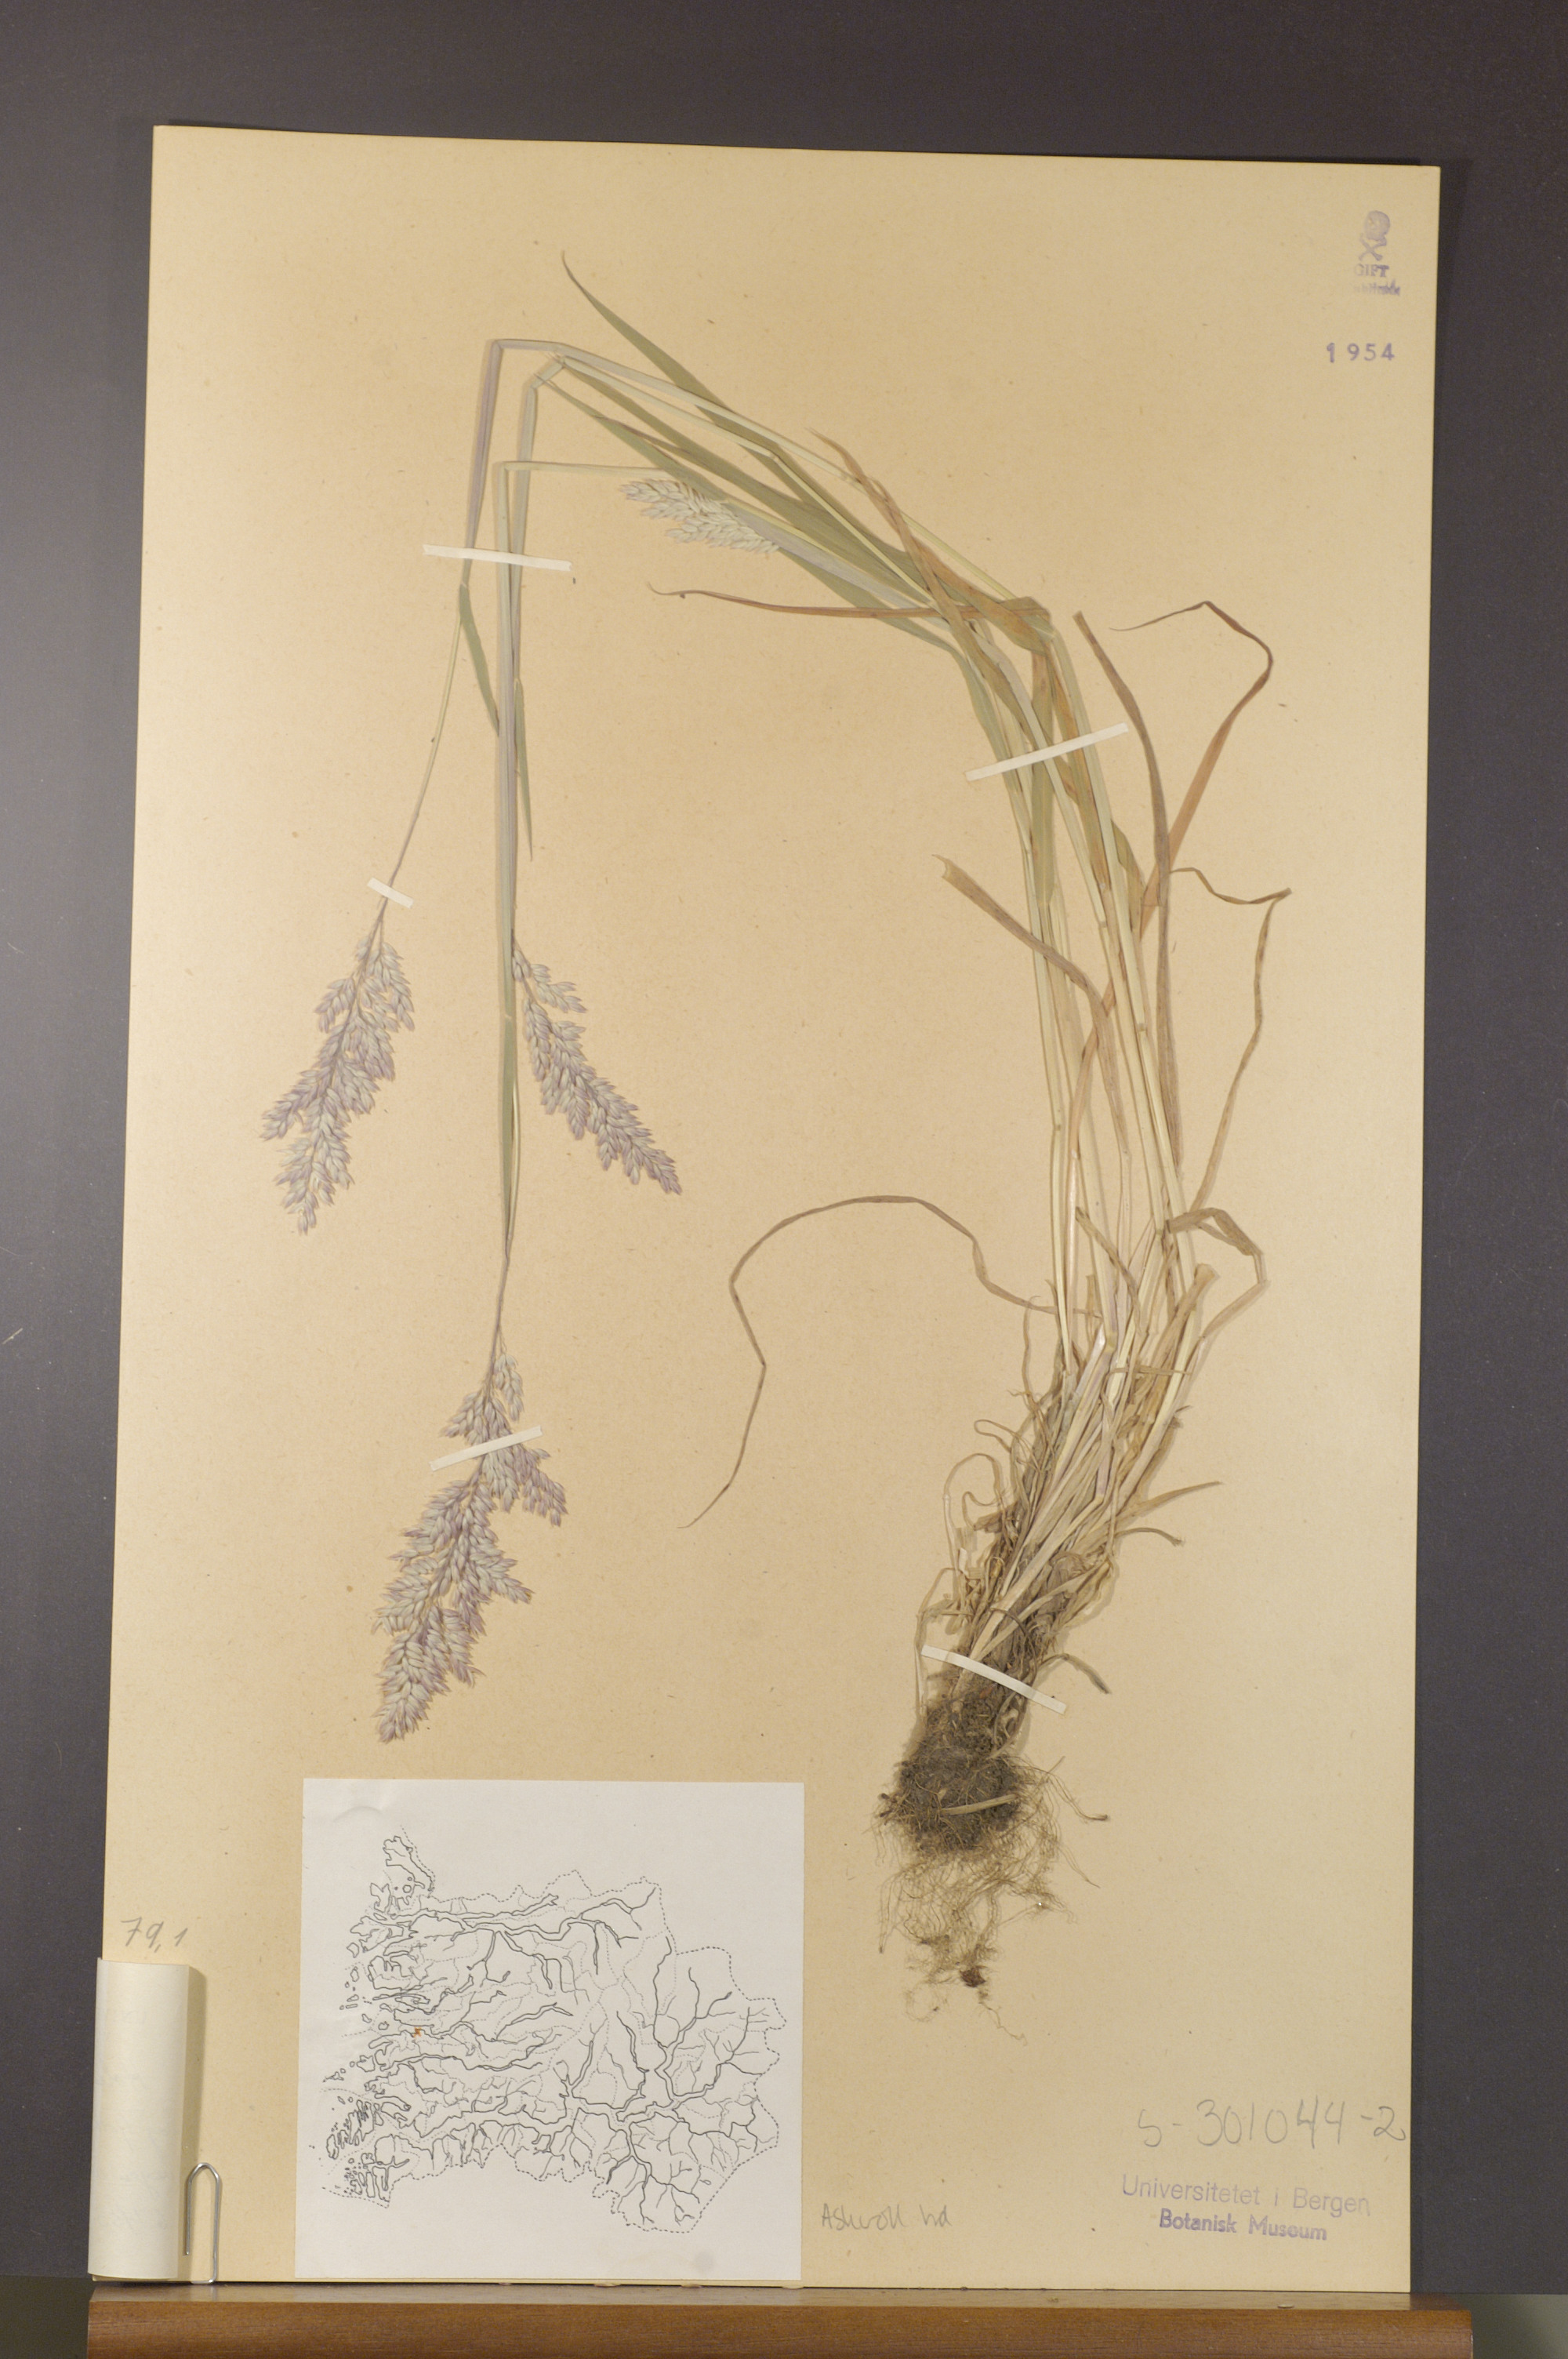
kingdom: Plantae
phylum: Tracheophyta
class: Liliopsida
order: Poales
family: Poaceae
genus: Holcus
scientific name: Holcus lanatus
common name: Yorkshire-fog
